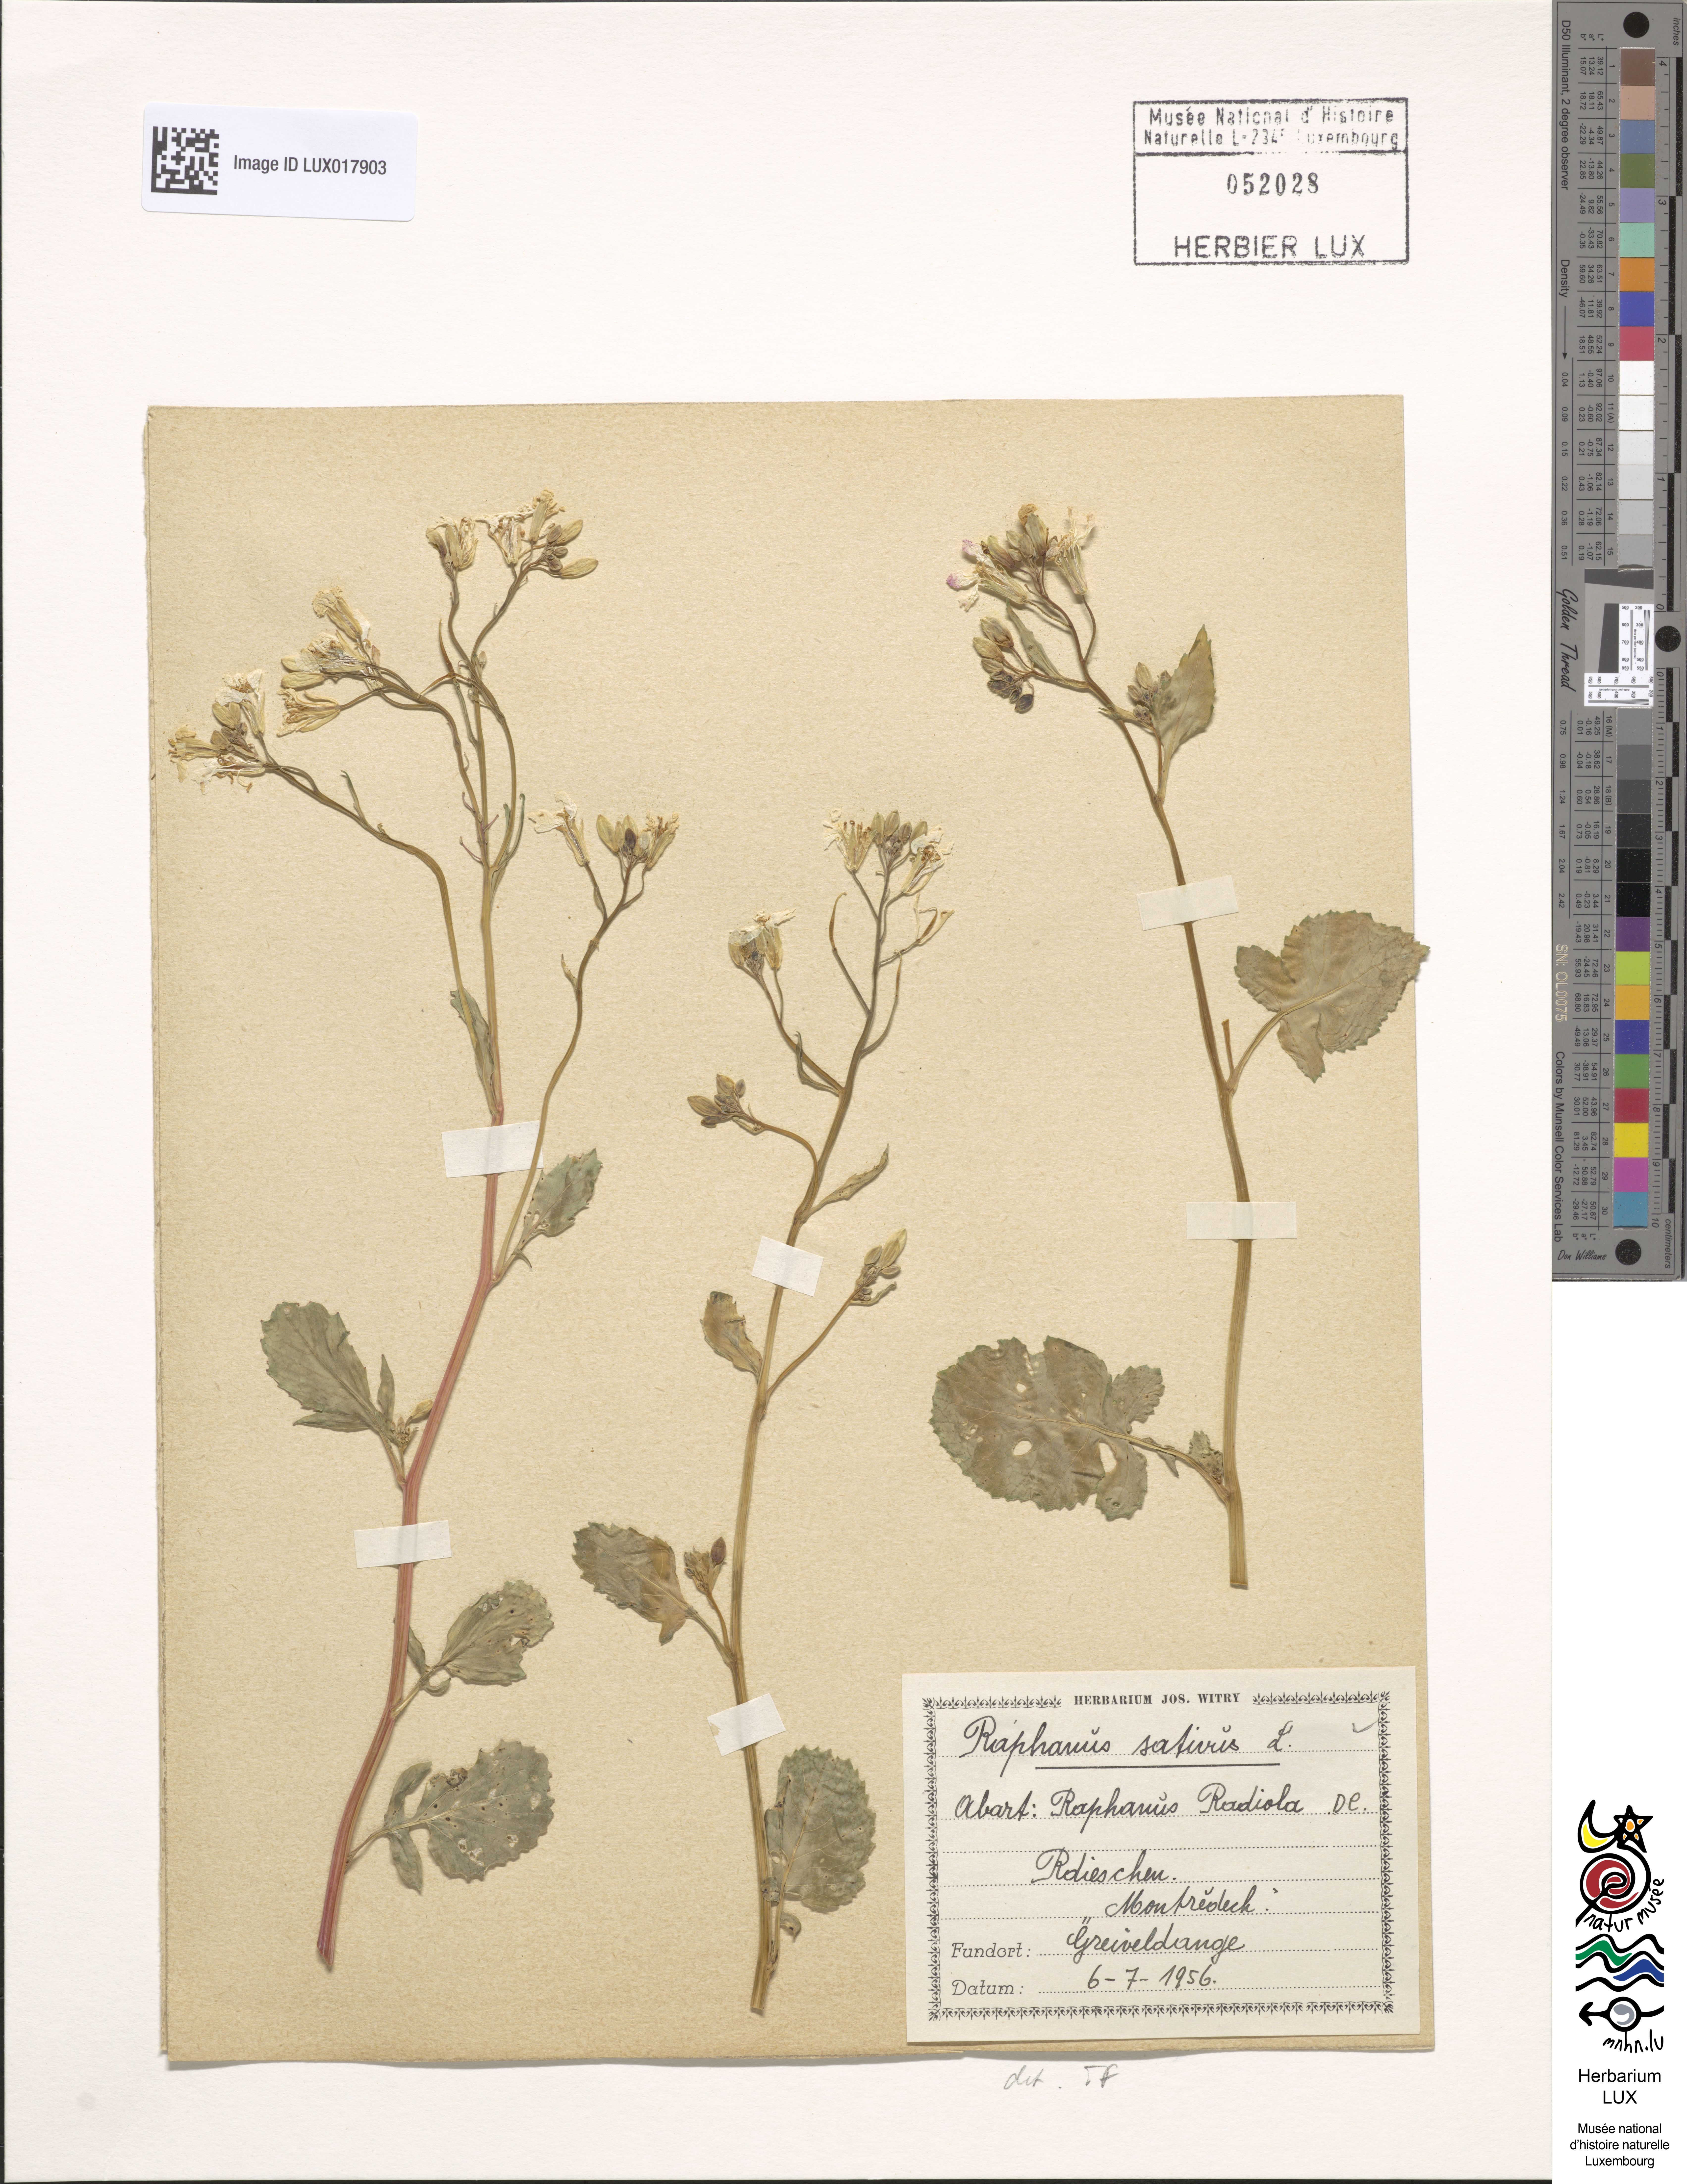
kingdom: Plantae
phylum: Tracheophyta
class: Magnoliopsida
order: Brassicales
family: Brassicaceae
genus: Raphanus
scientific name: Raphanus sativus
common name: Cultivated radish
